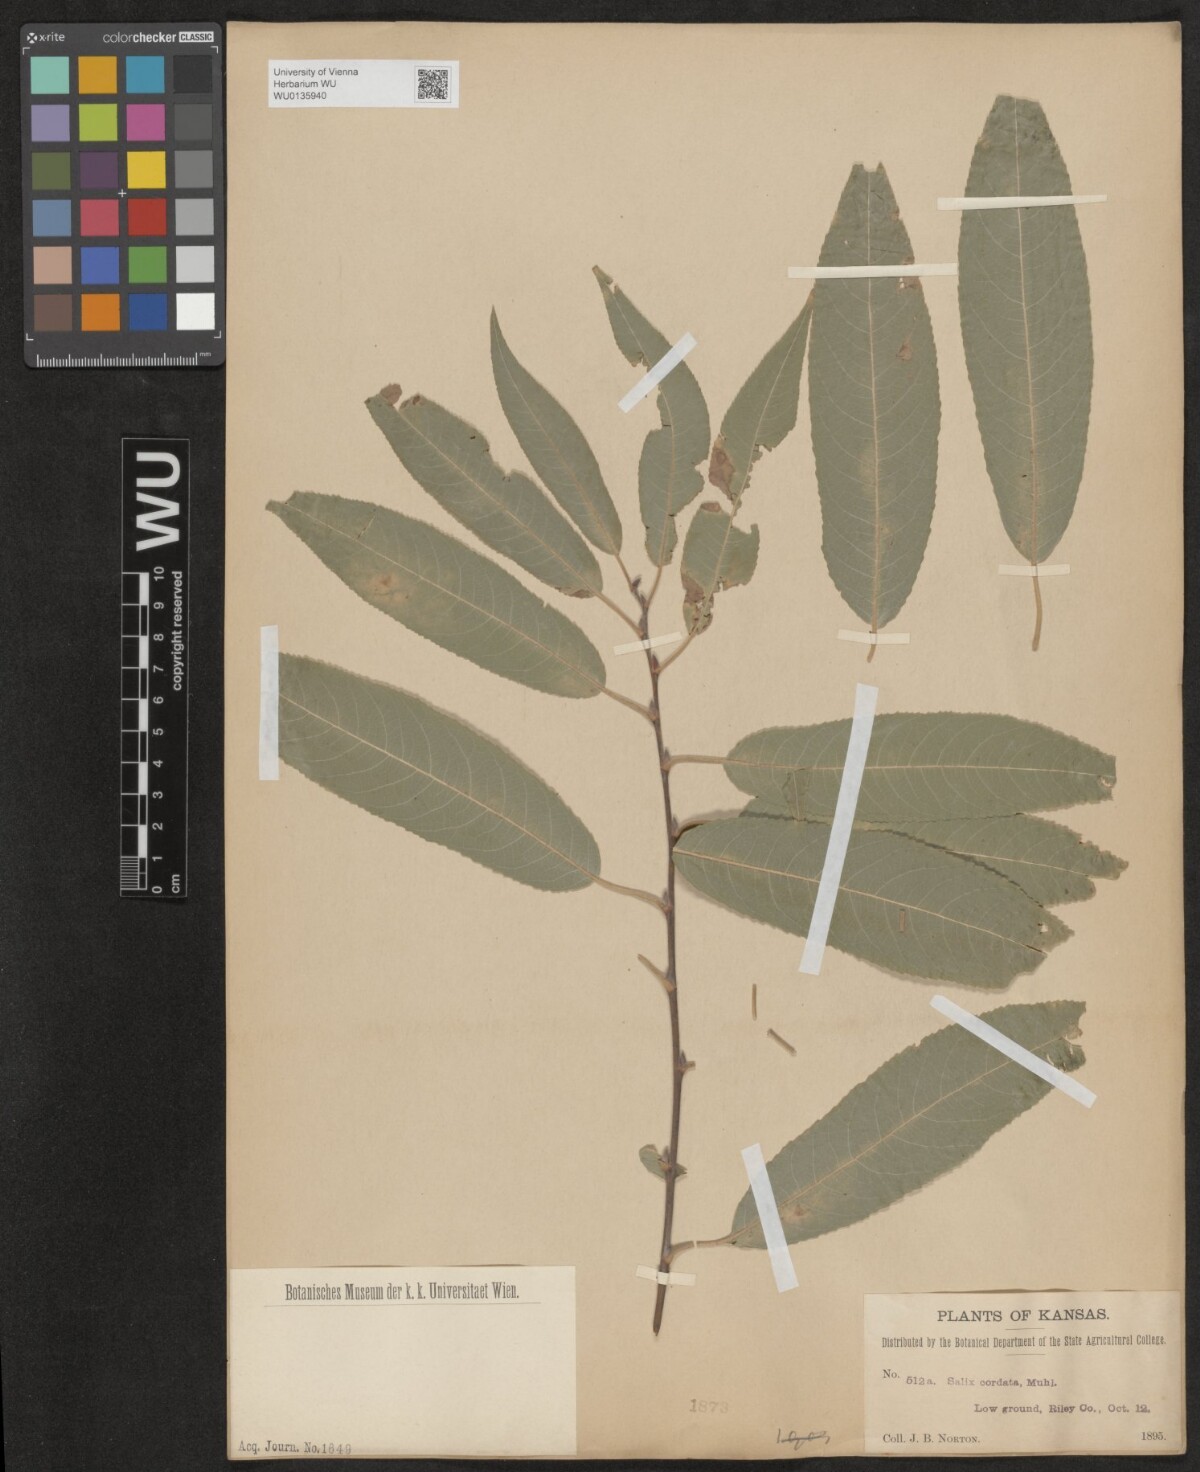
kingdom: Plantae
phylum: Tracheophyta
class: Magnoliopsida
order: Malpighiales
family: Salicaceae
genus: Salix
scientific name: Salix cordata
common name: Heart-leaf willow
